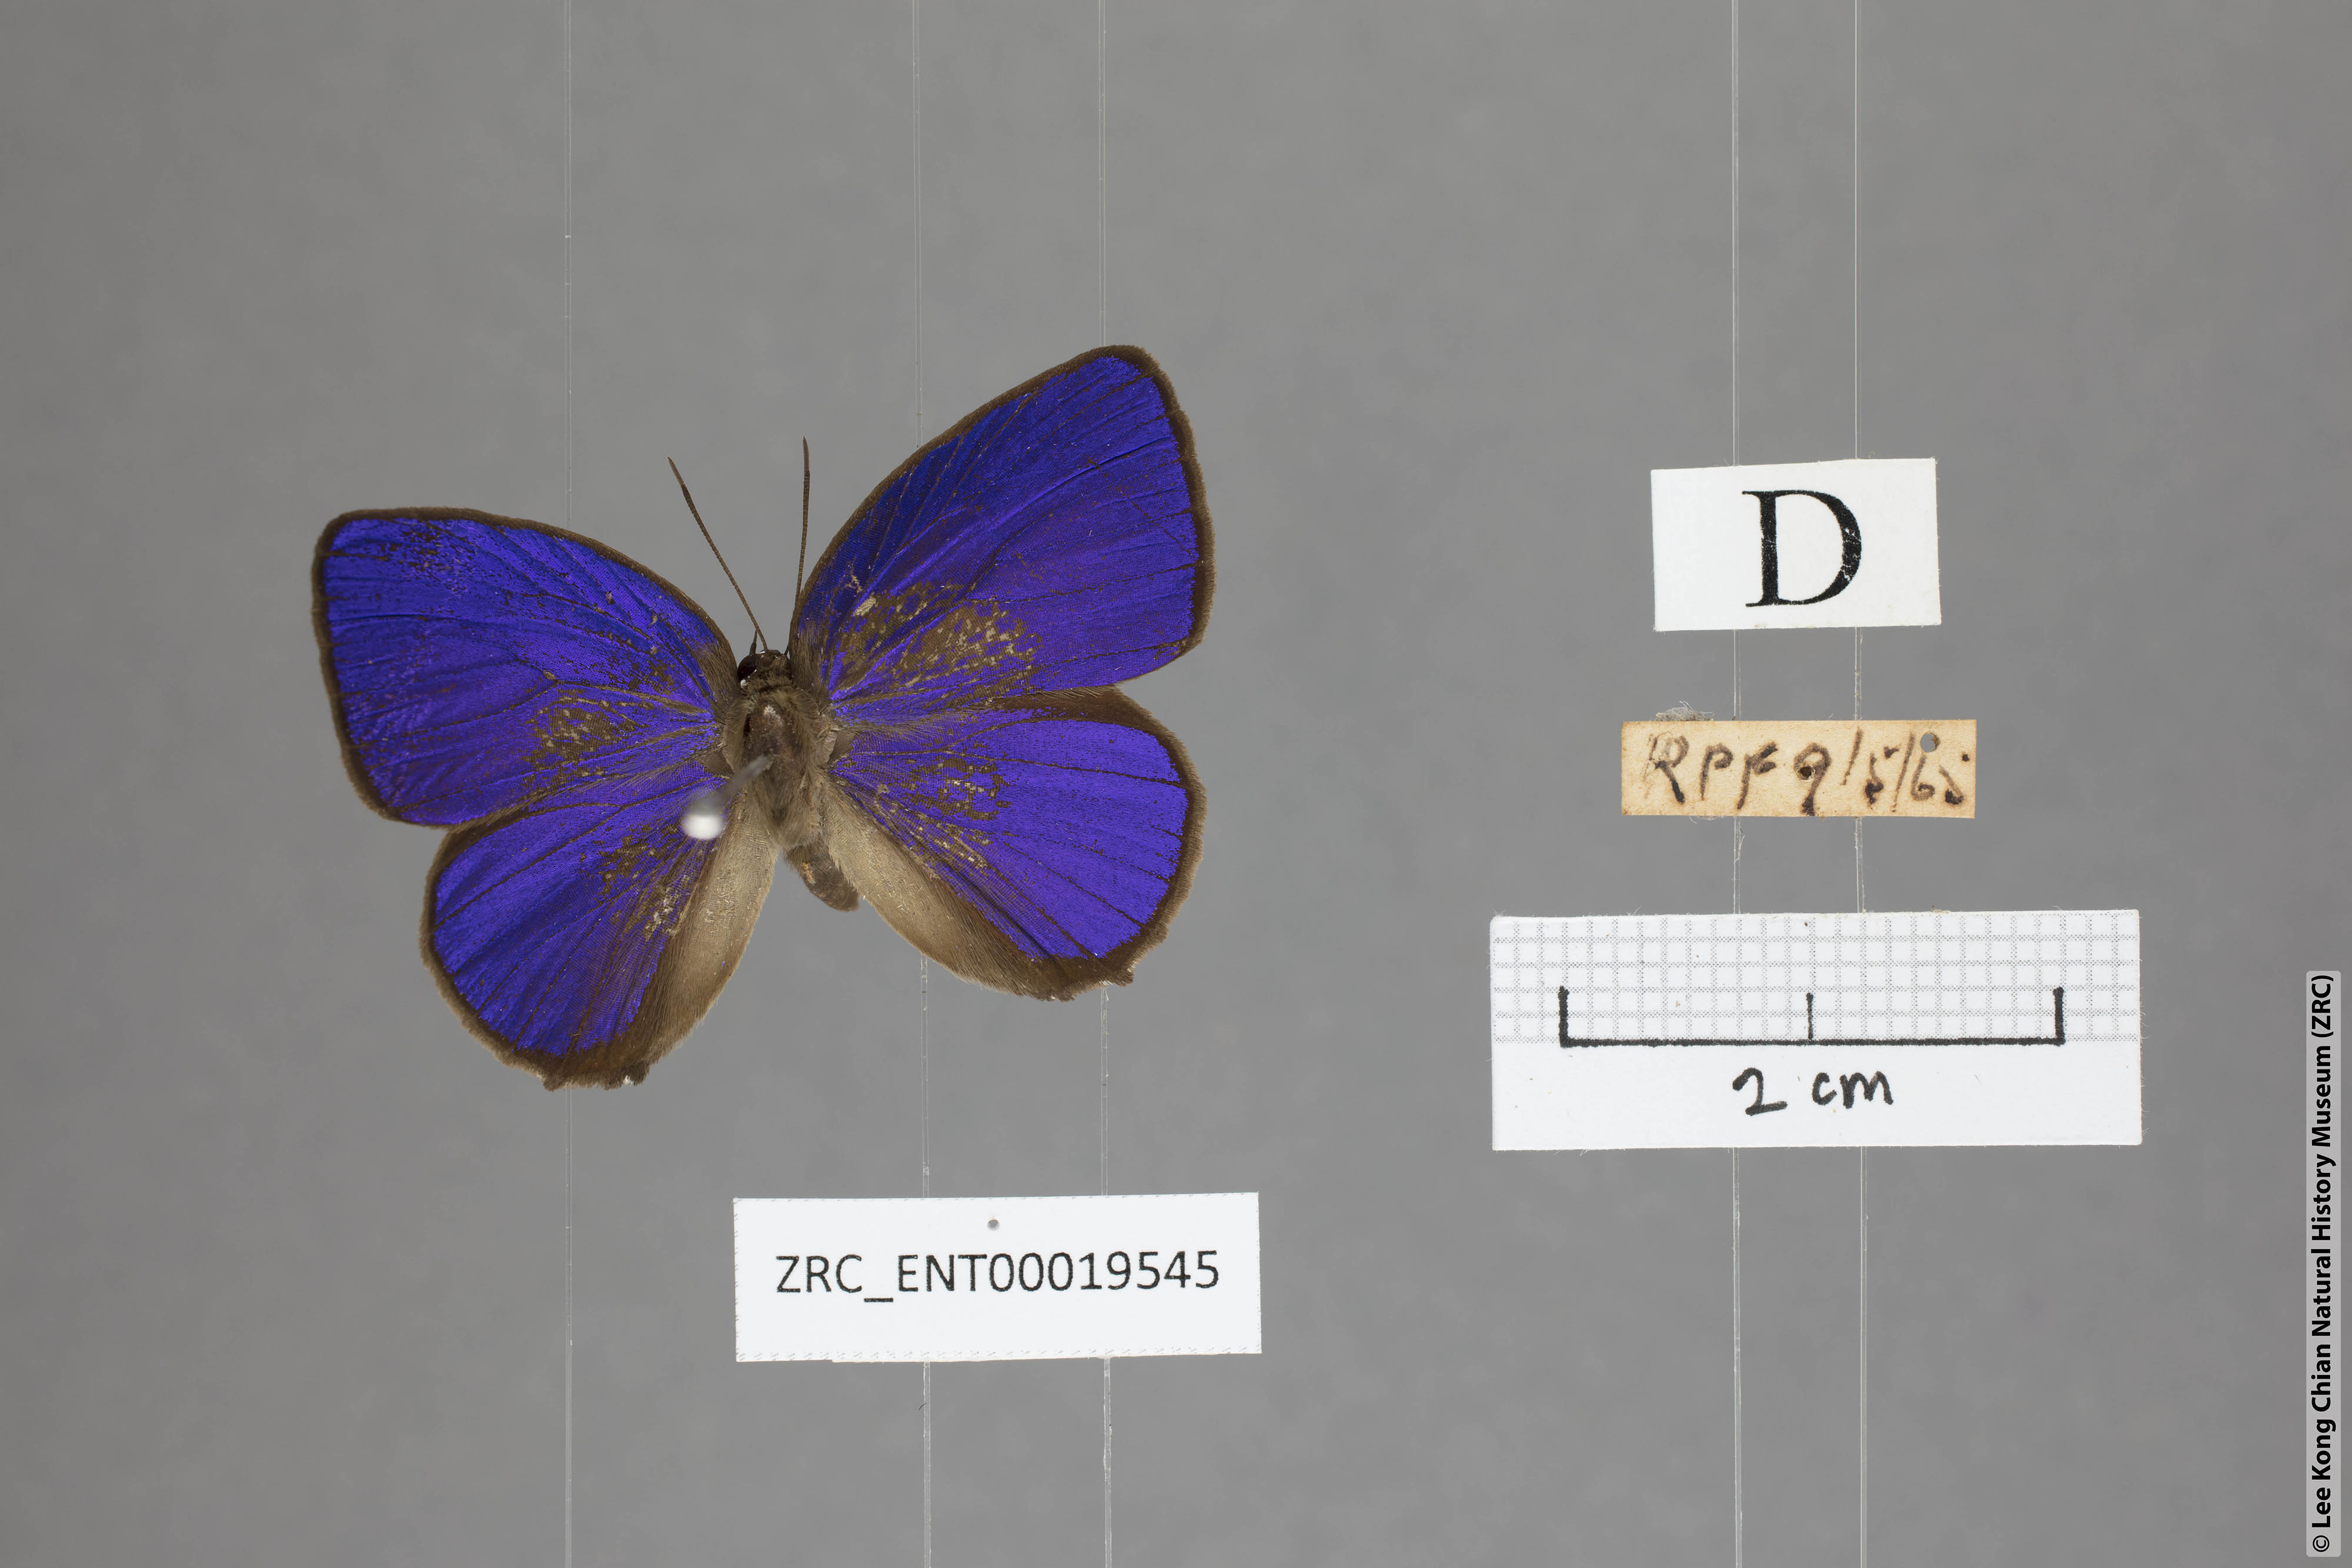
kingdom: Animalia
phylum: Arthropoda
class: Insecta
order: Lepidoptera
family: Lycaenidae
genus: Arhopala
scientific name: Arhopala hypomuta
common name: Violet oakblue
